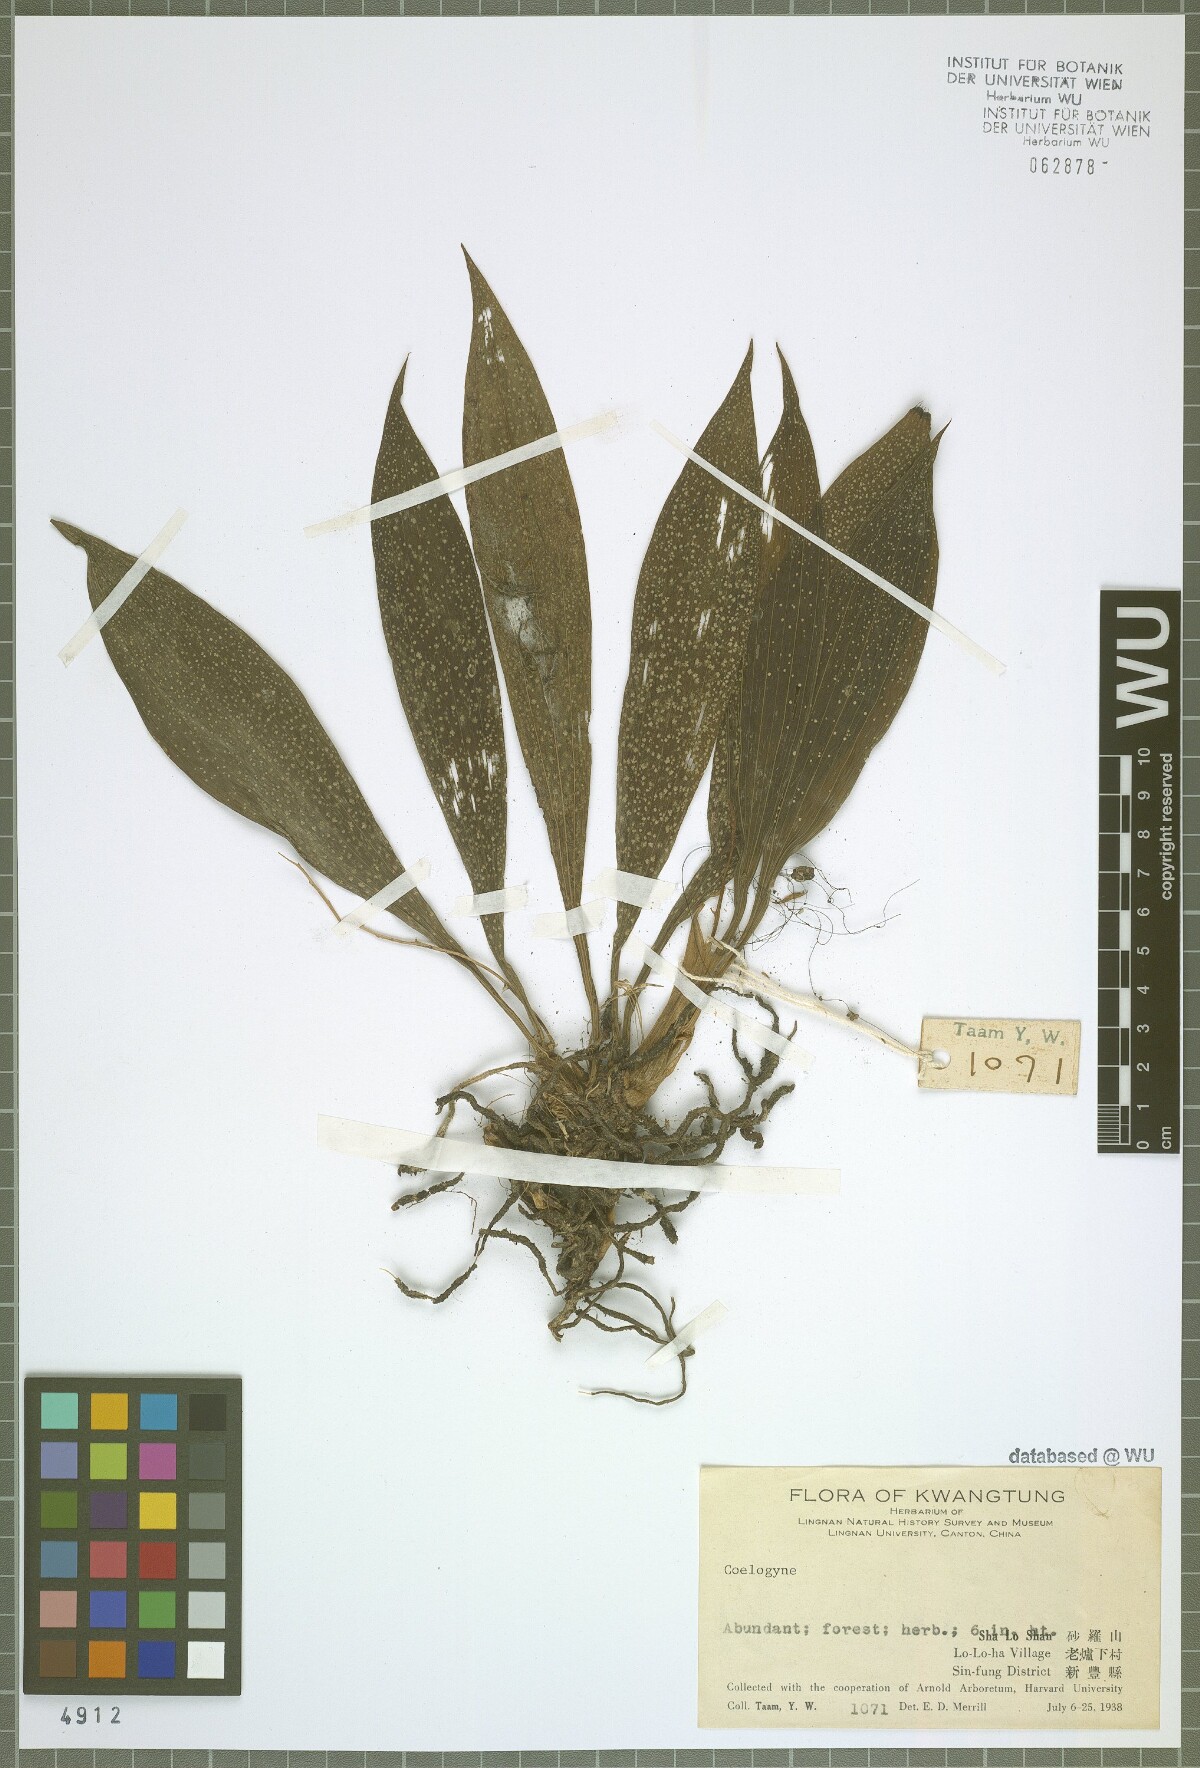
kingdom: Plantae
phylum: Tracheophyta
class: Liliopsida
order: Asparagales
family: Orchidaceae
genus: Coelogyne
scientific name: Coelogyne
